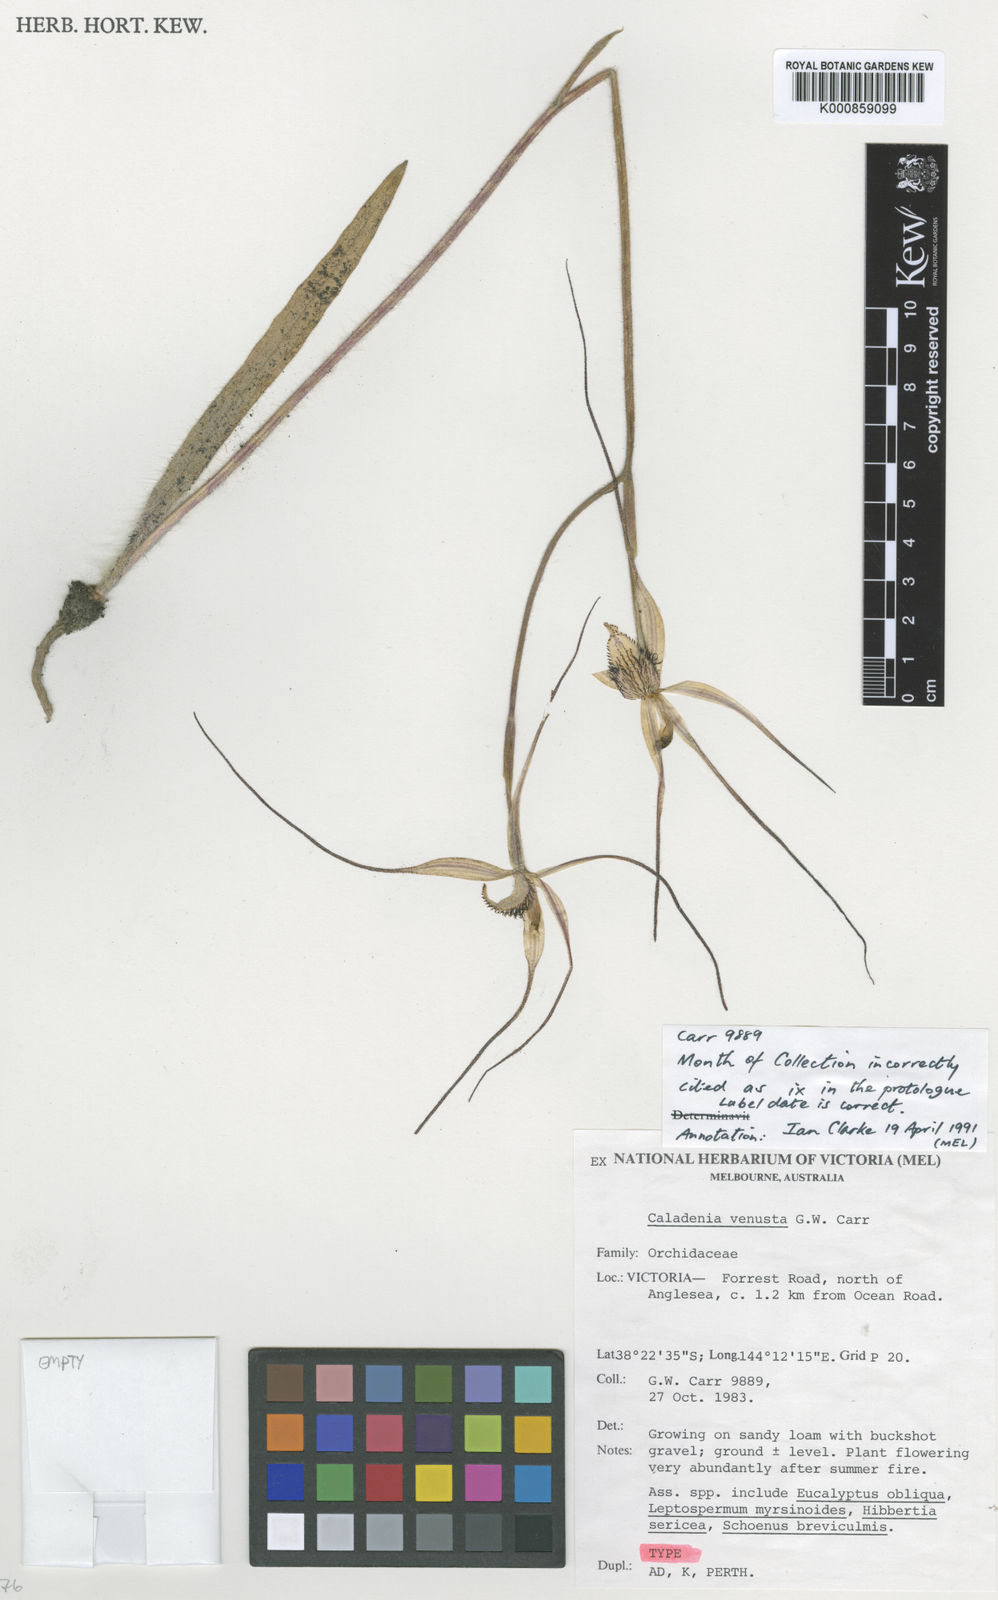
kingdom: Plantae
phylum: Tracheophyta
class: Liliopsida
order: Asparagales
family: Orchidaceae
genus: Caladenia
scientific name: Caladenia venusta
